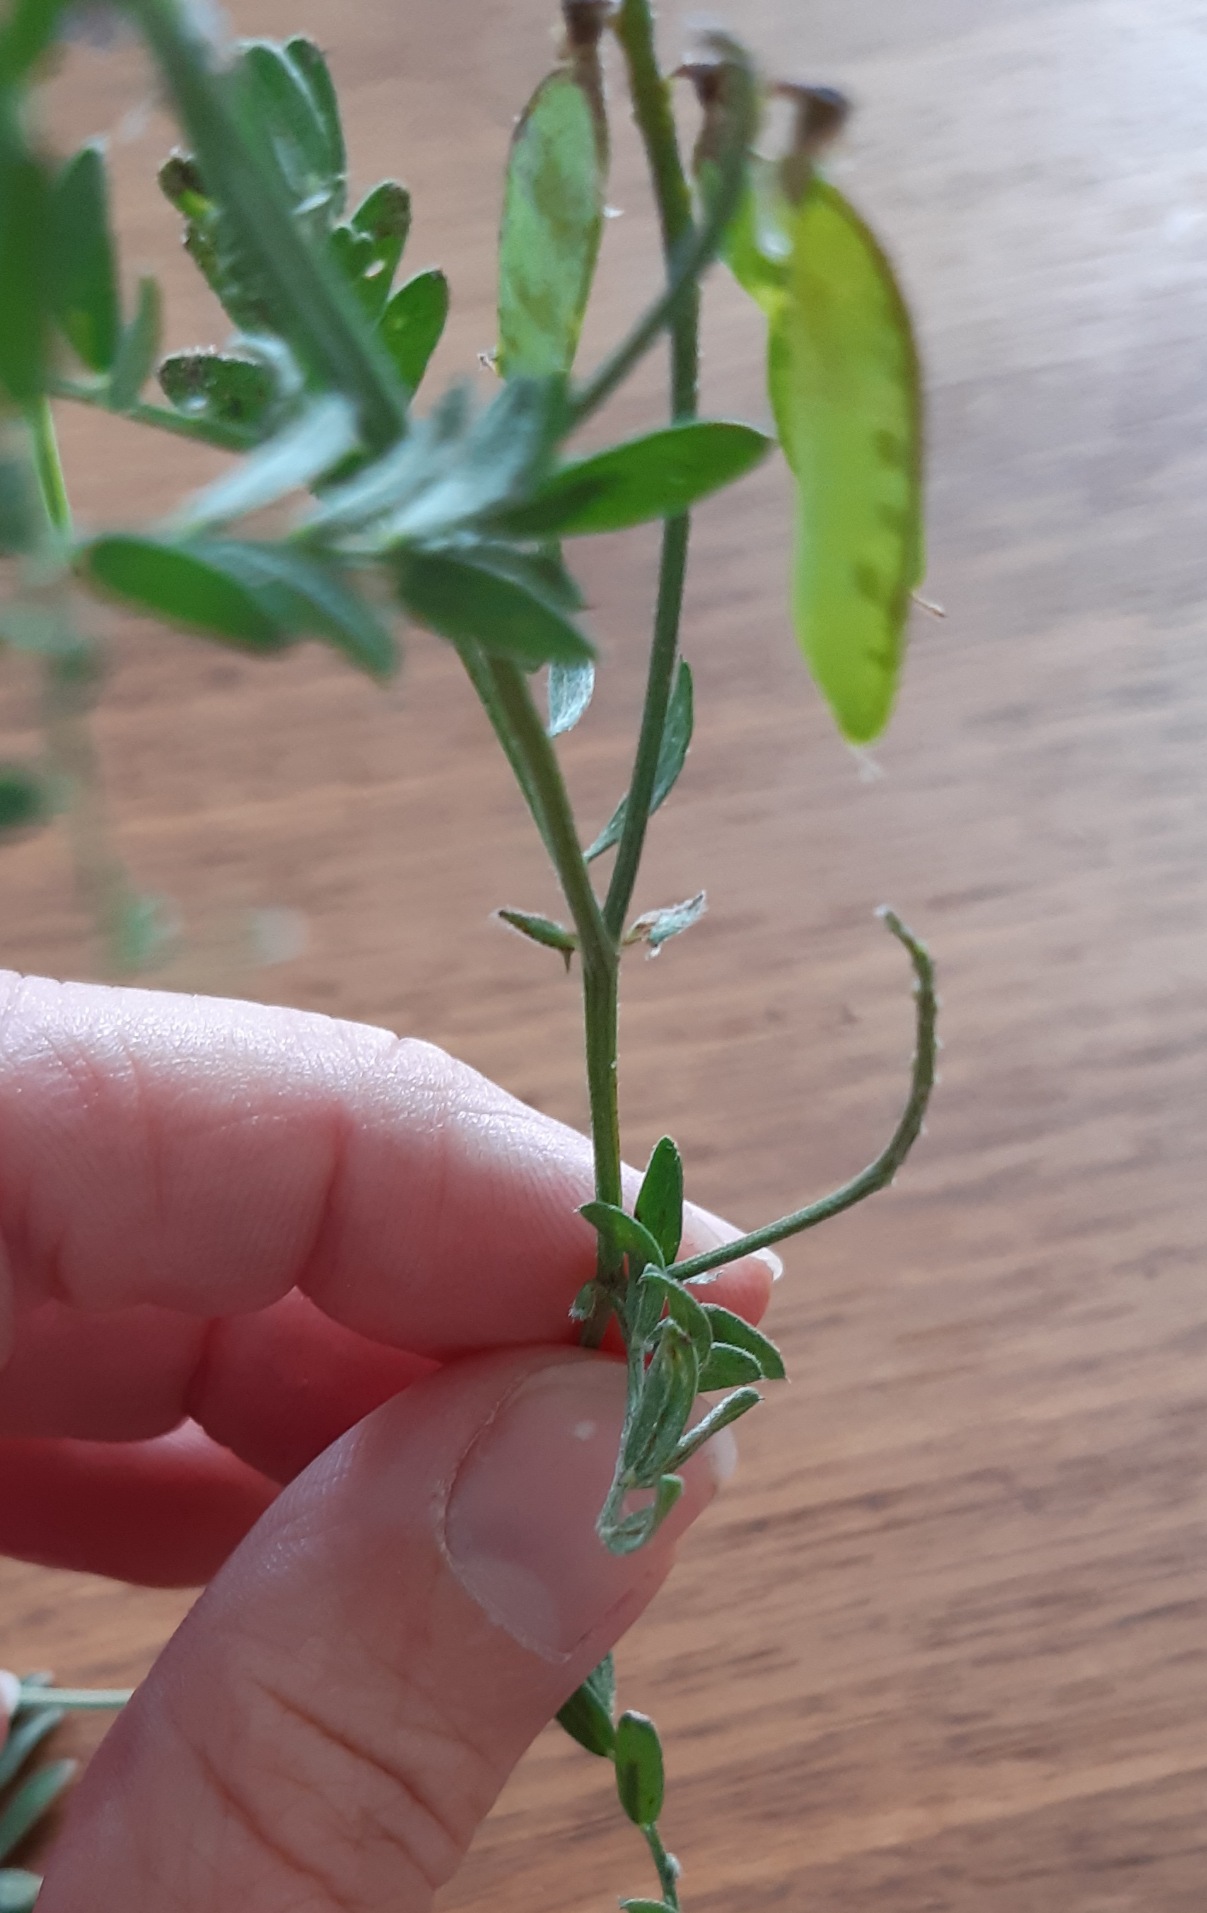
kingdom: Plantae
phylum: Tracheophyta
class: Magnoliopsida
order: Fabales
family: Fabaceae
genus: Vicia
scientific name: Vicia cracca
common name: Muse-vikke
